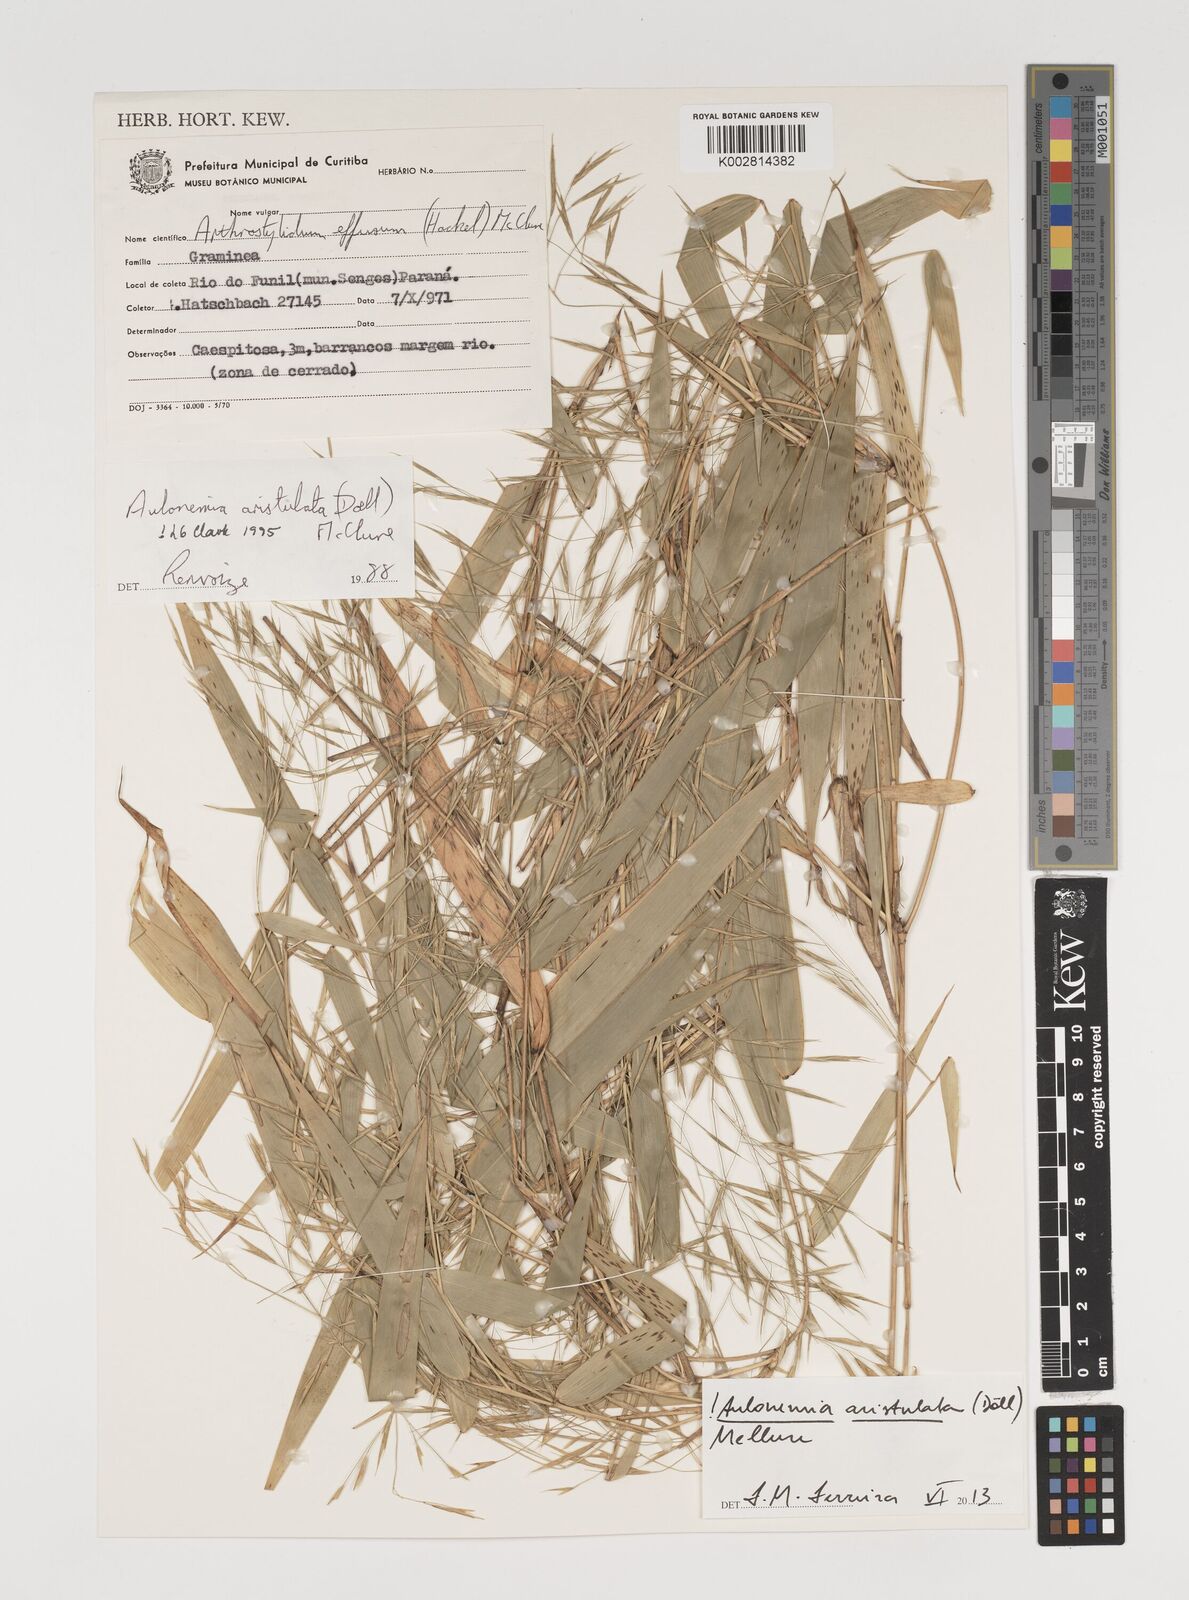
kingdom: Plantae
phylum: Tracheophyta
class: Liliopsida
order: Poales
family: Poaceae
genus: Aulonemia
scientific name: Aulonemia aristulata
